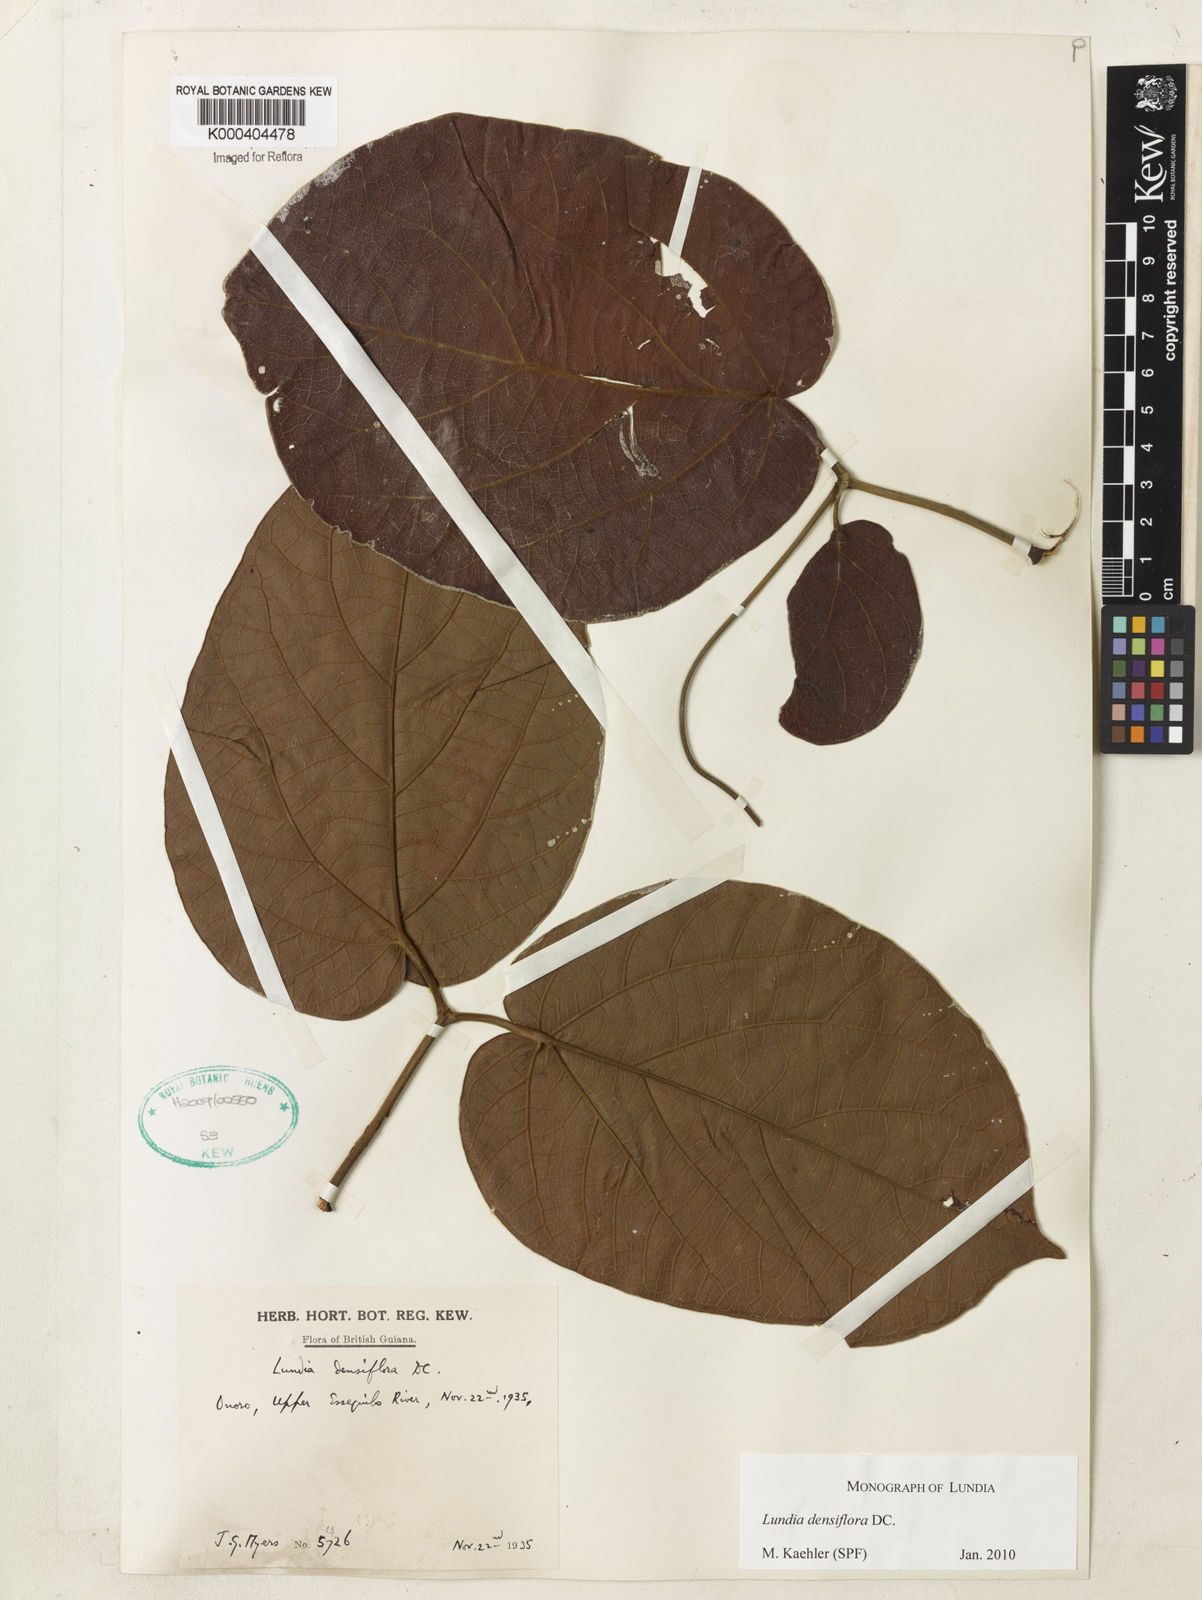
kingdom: Plantae
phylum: Tracheophyta
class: Magnoliopsida
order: Lamiales
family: Bignoniaceae
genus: Lundia
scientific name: Lundia densiflora
